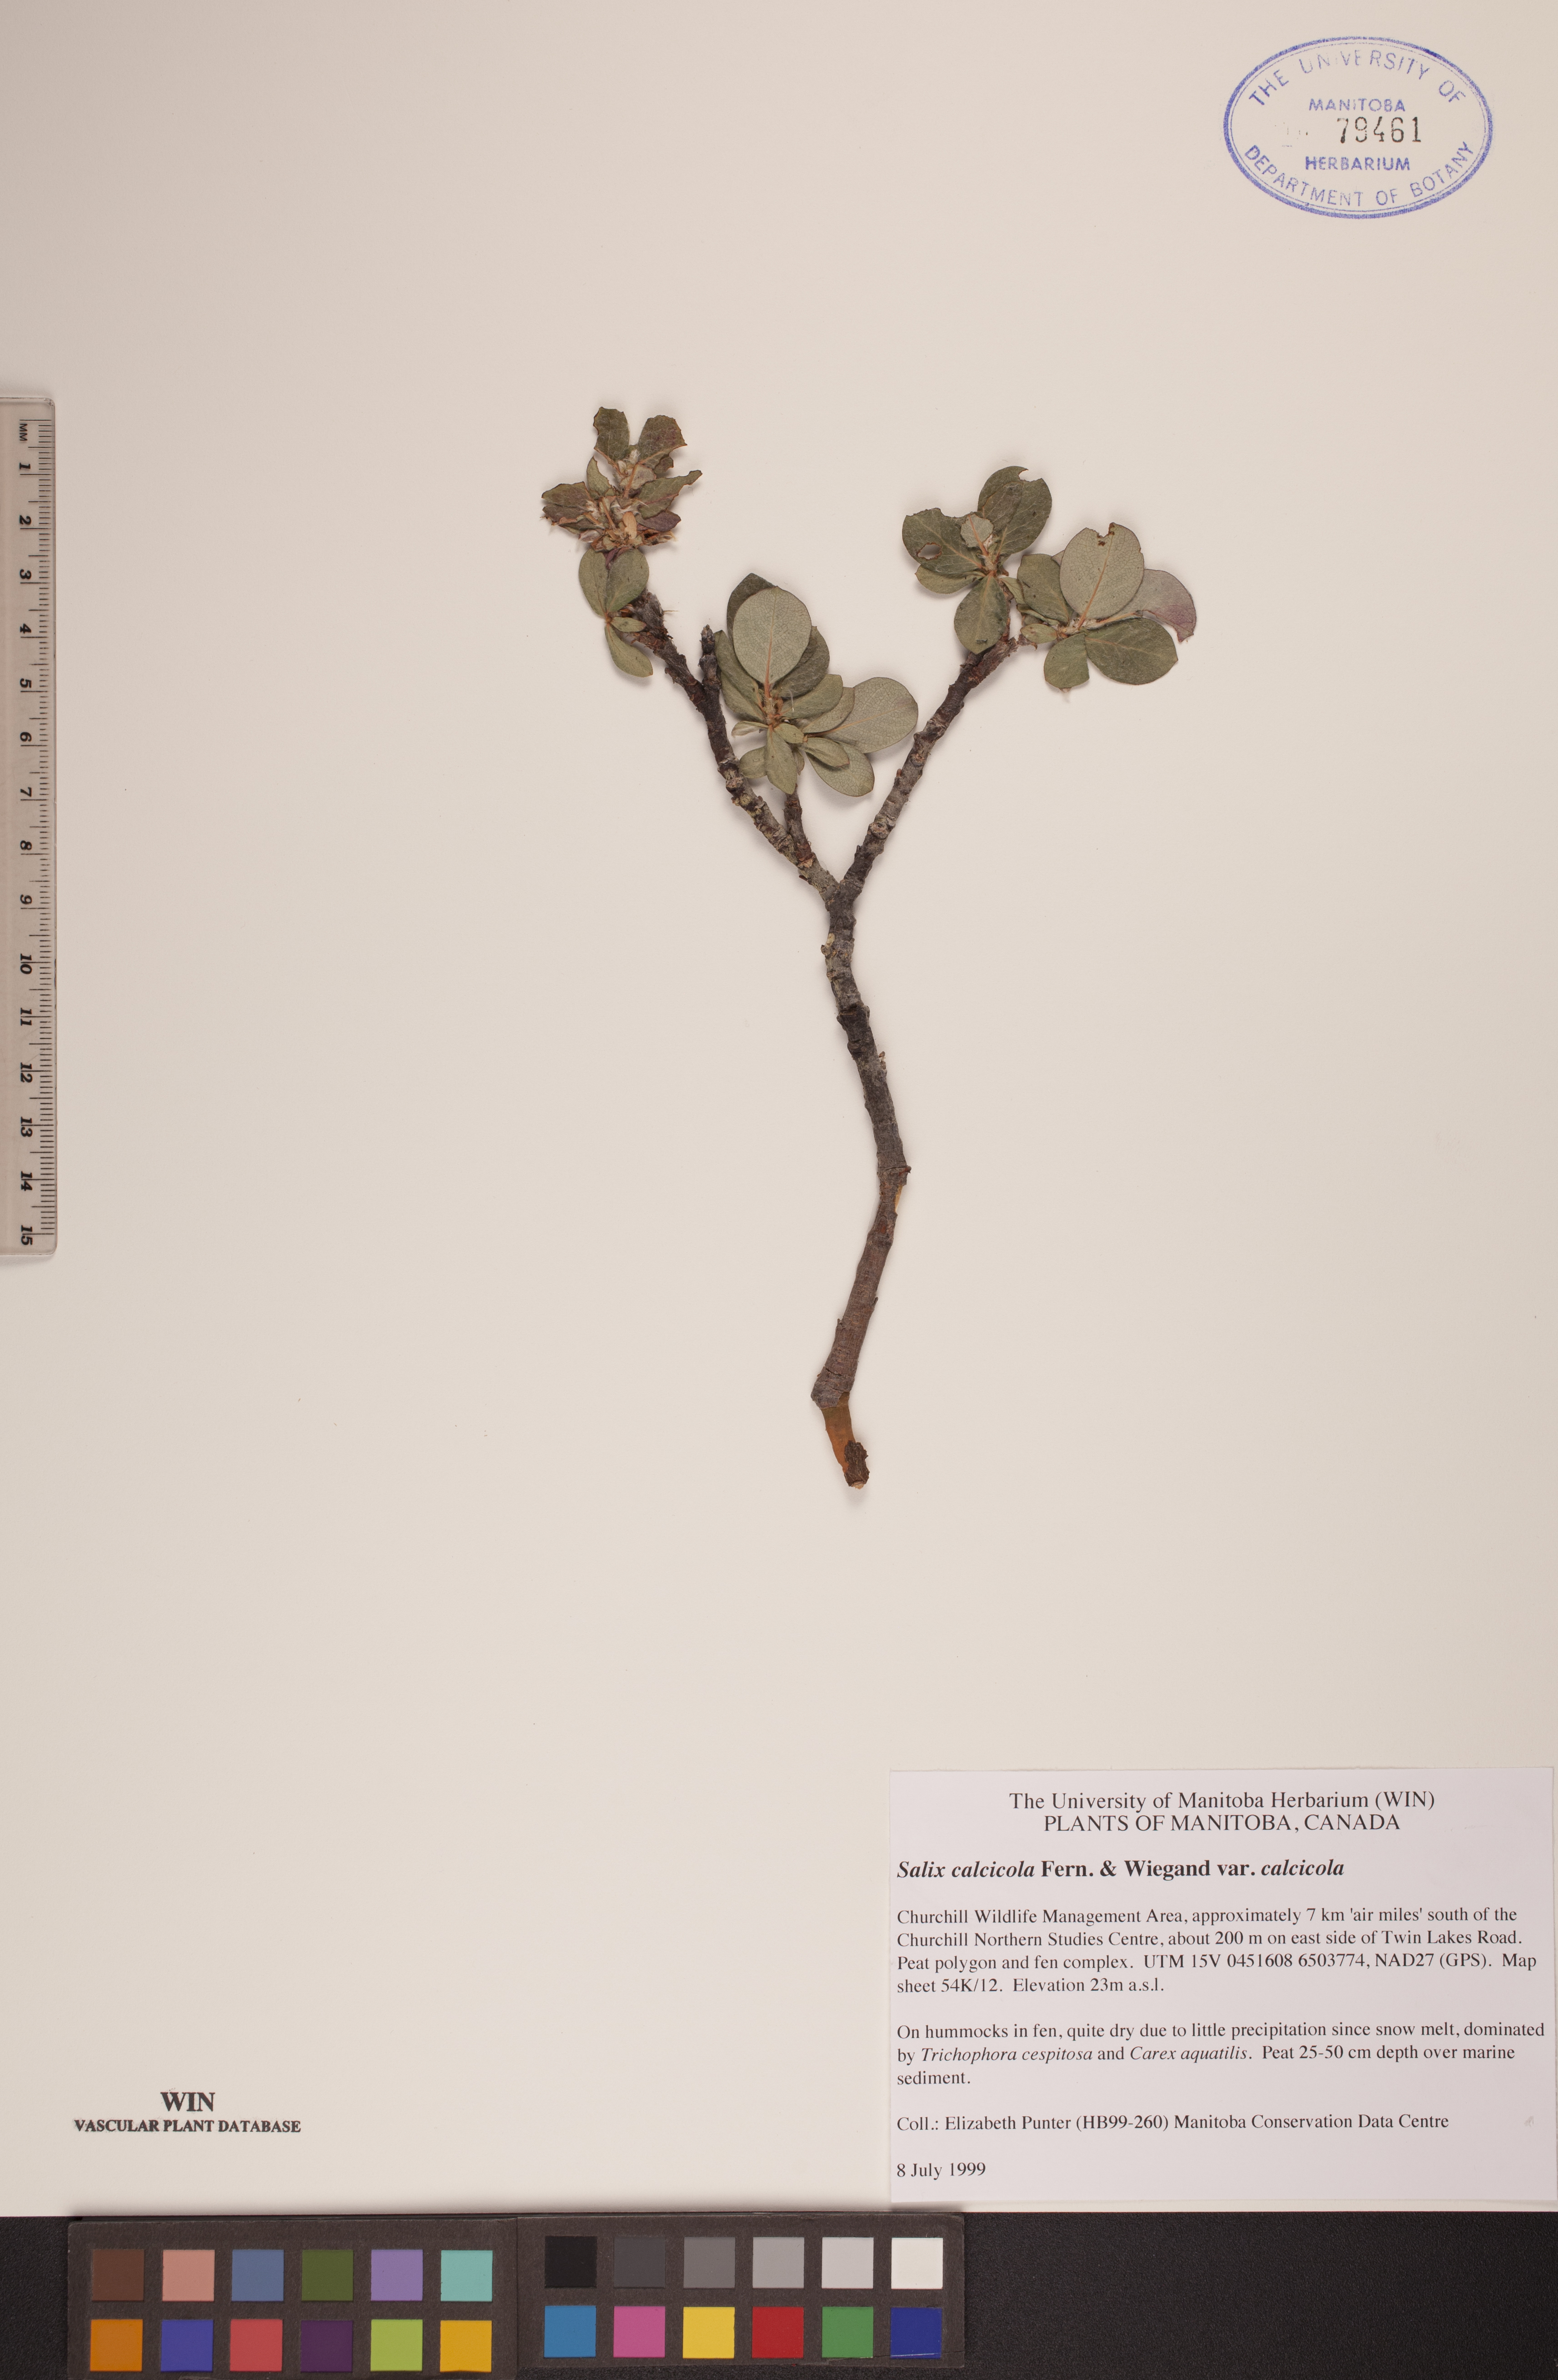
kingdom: Plantae
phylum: Tracheophyta
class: Magnoliopsida
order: Malpighiales
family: Salicaceae
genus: Salix
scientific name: Salix calcicola
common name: Calcareous willow
